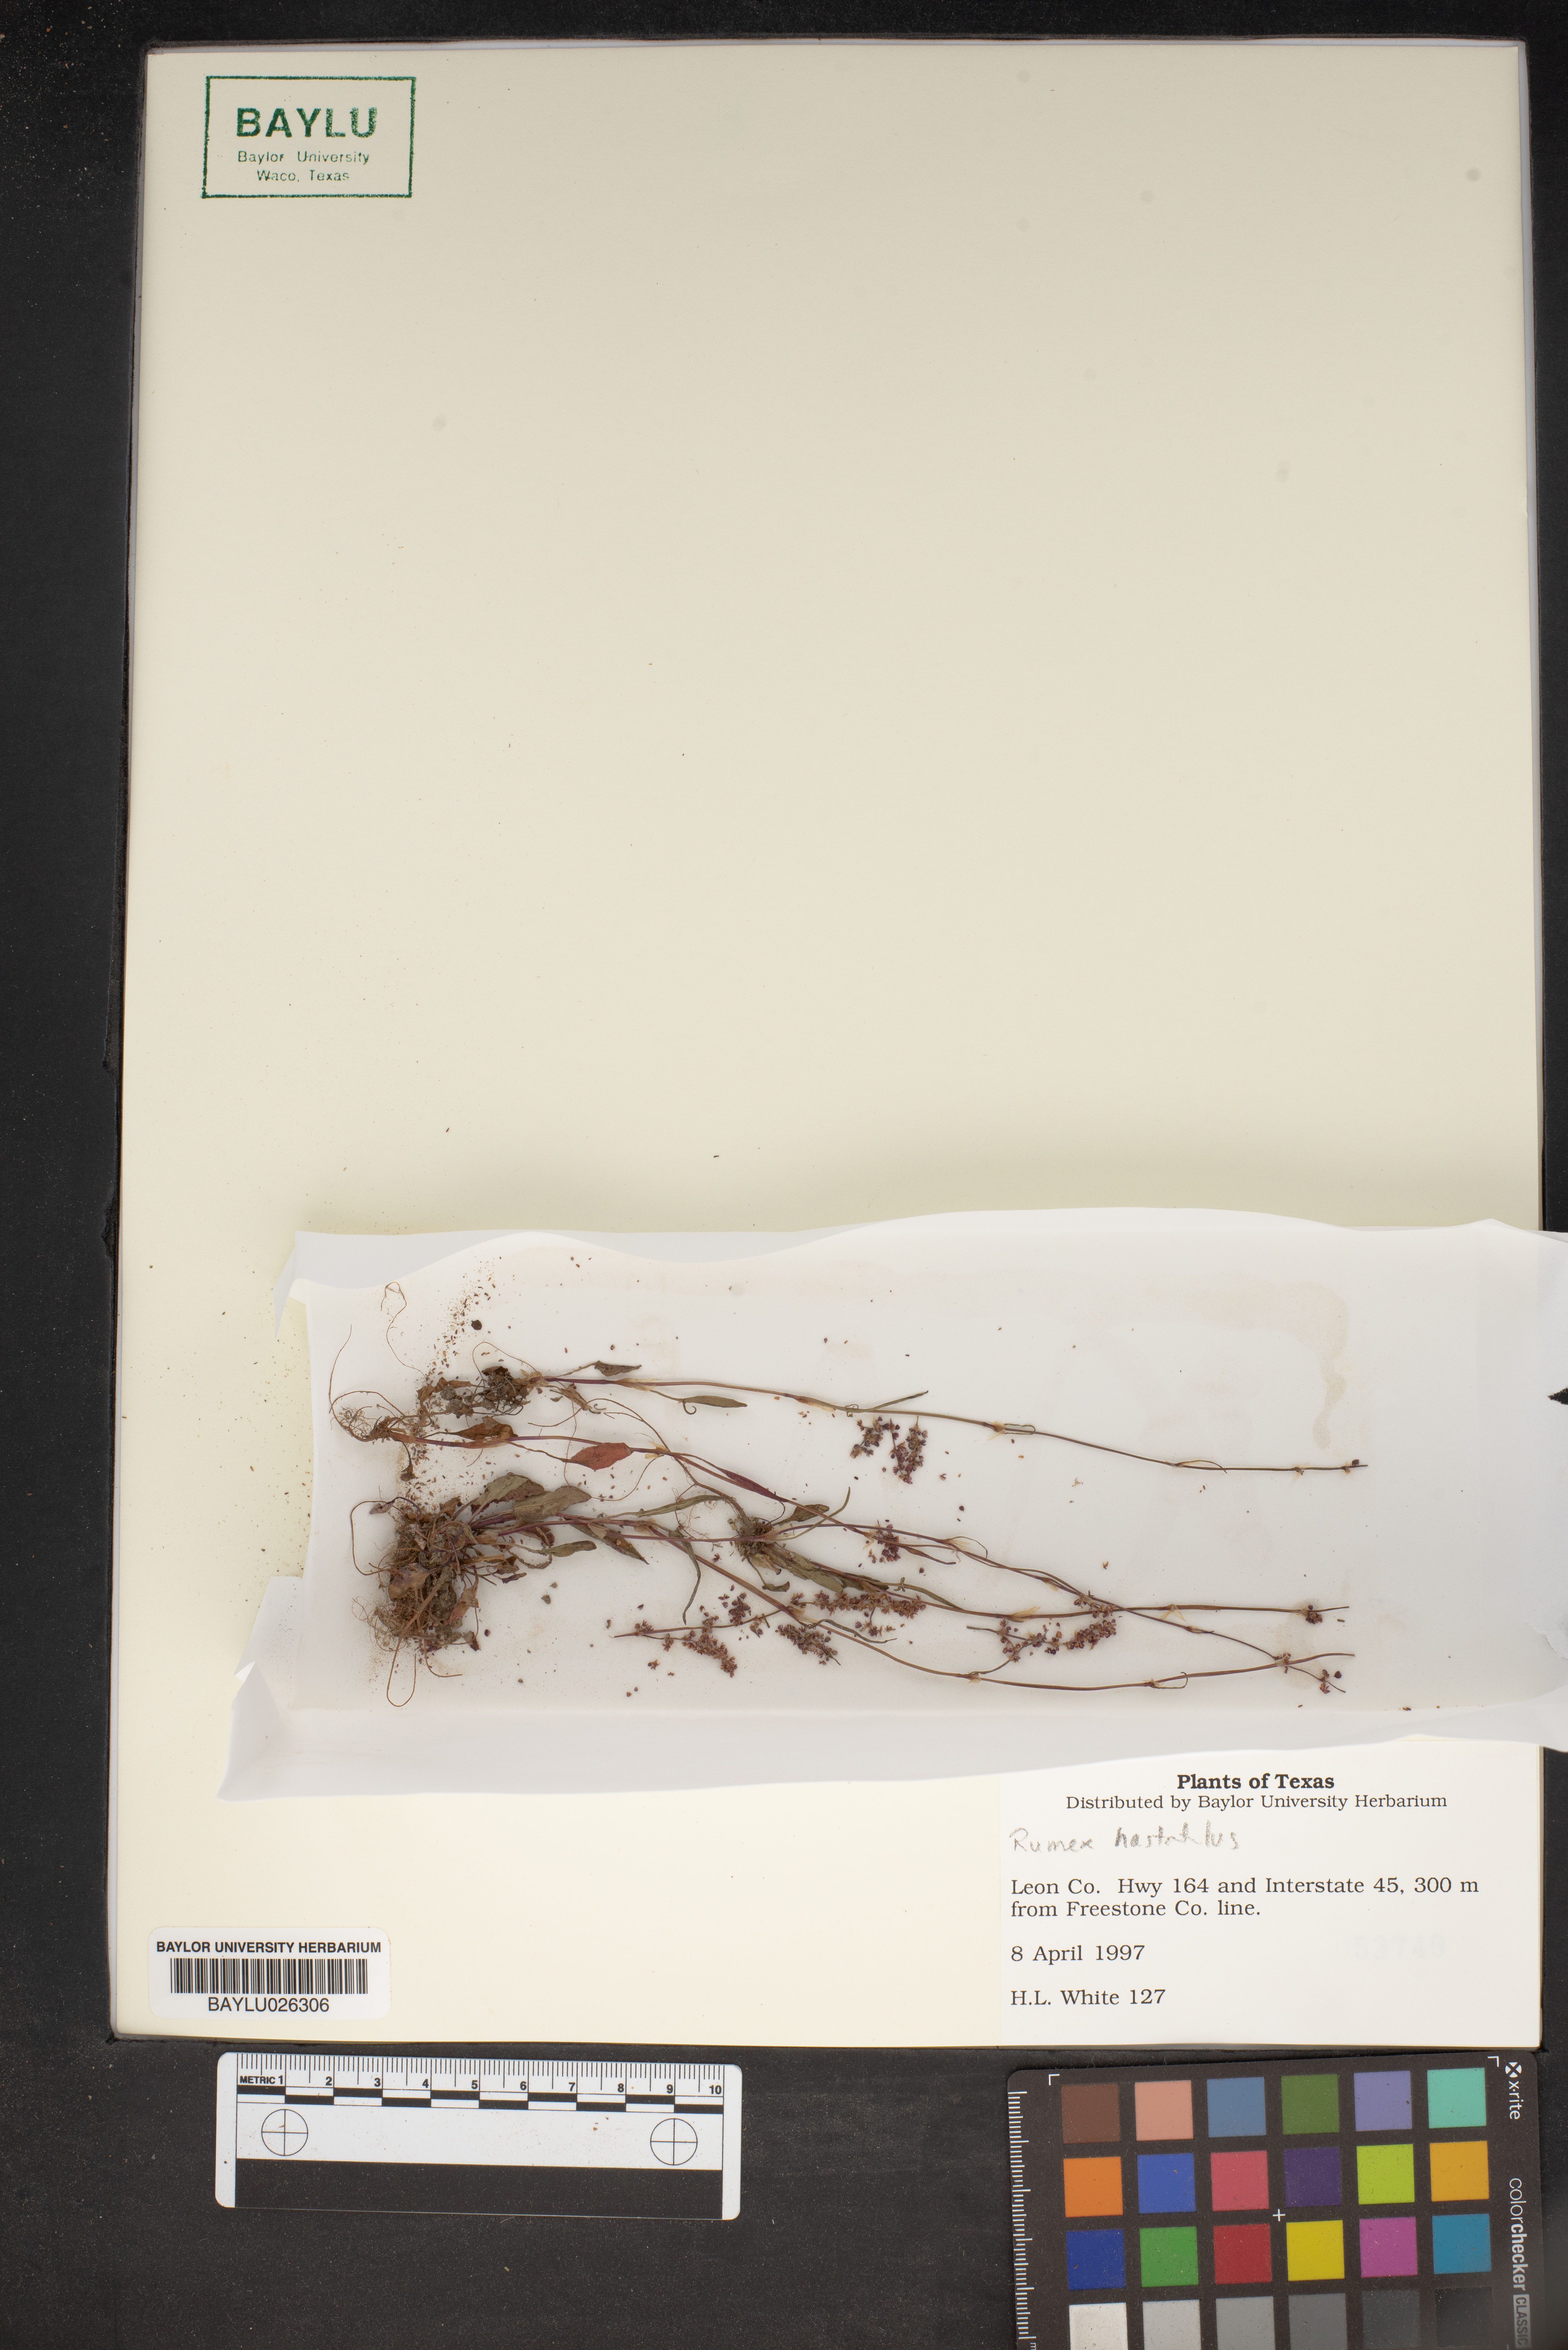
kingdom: Plantae
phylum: Tracheophyta
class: Magnoliopsida
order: Caryophyllales
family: Polygonaceae
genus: Rumex
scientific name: Rumex hastatulus
